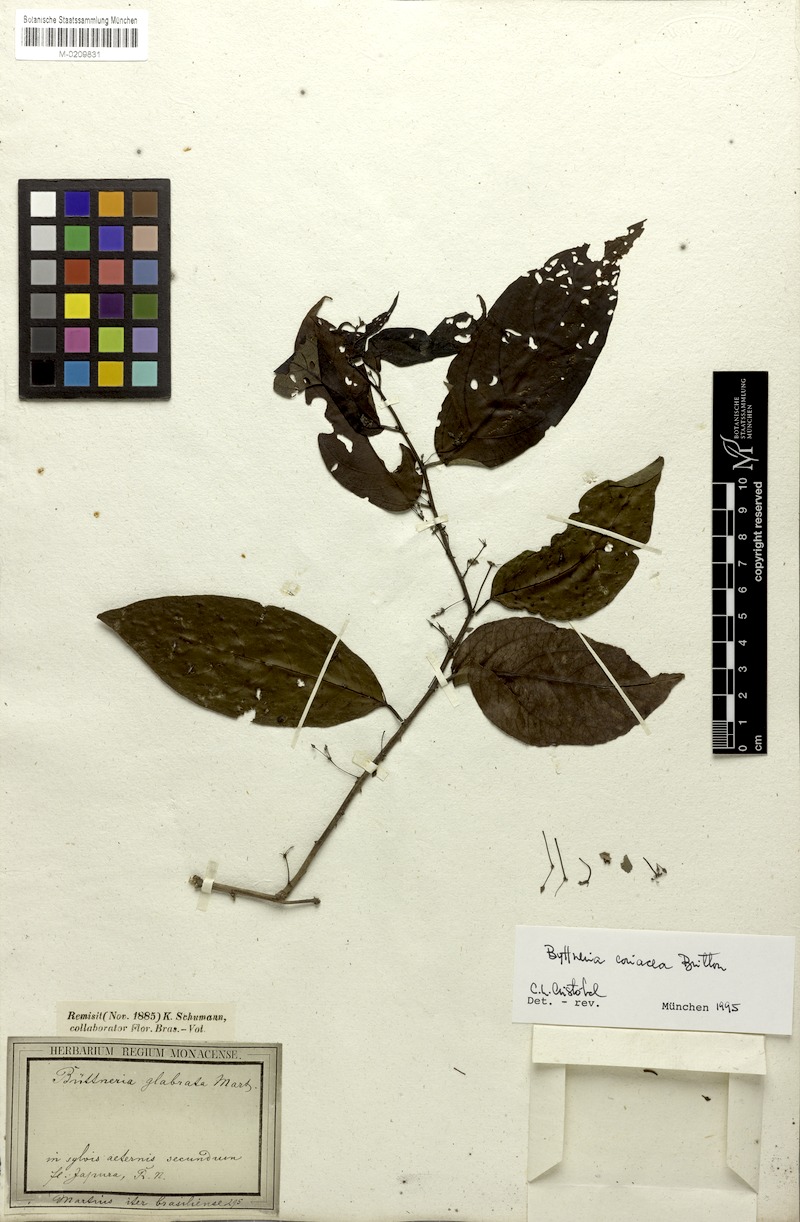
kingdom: Plantae
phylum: Tracheophyta
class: Magnoliopsida
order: Malvales
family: Malvaceae
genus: Byttneria
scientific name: Byttneria coriacea
